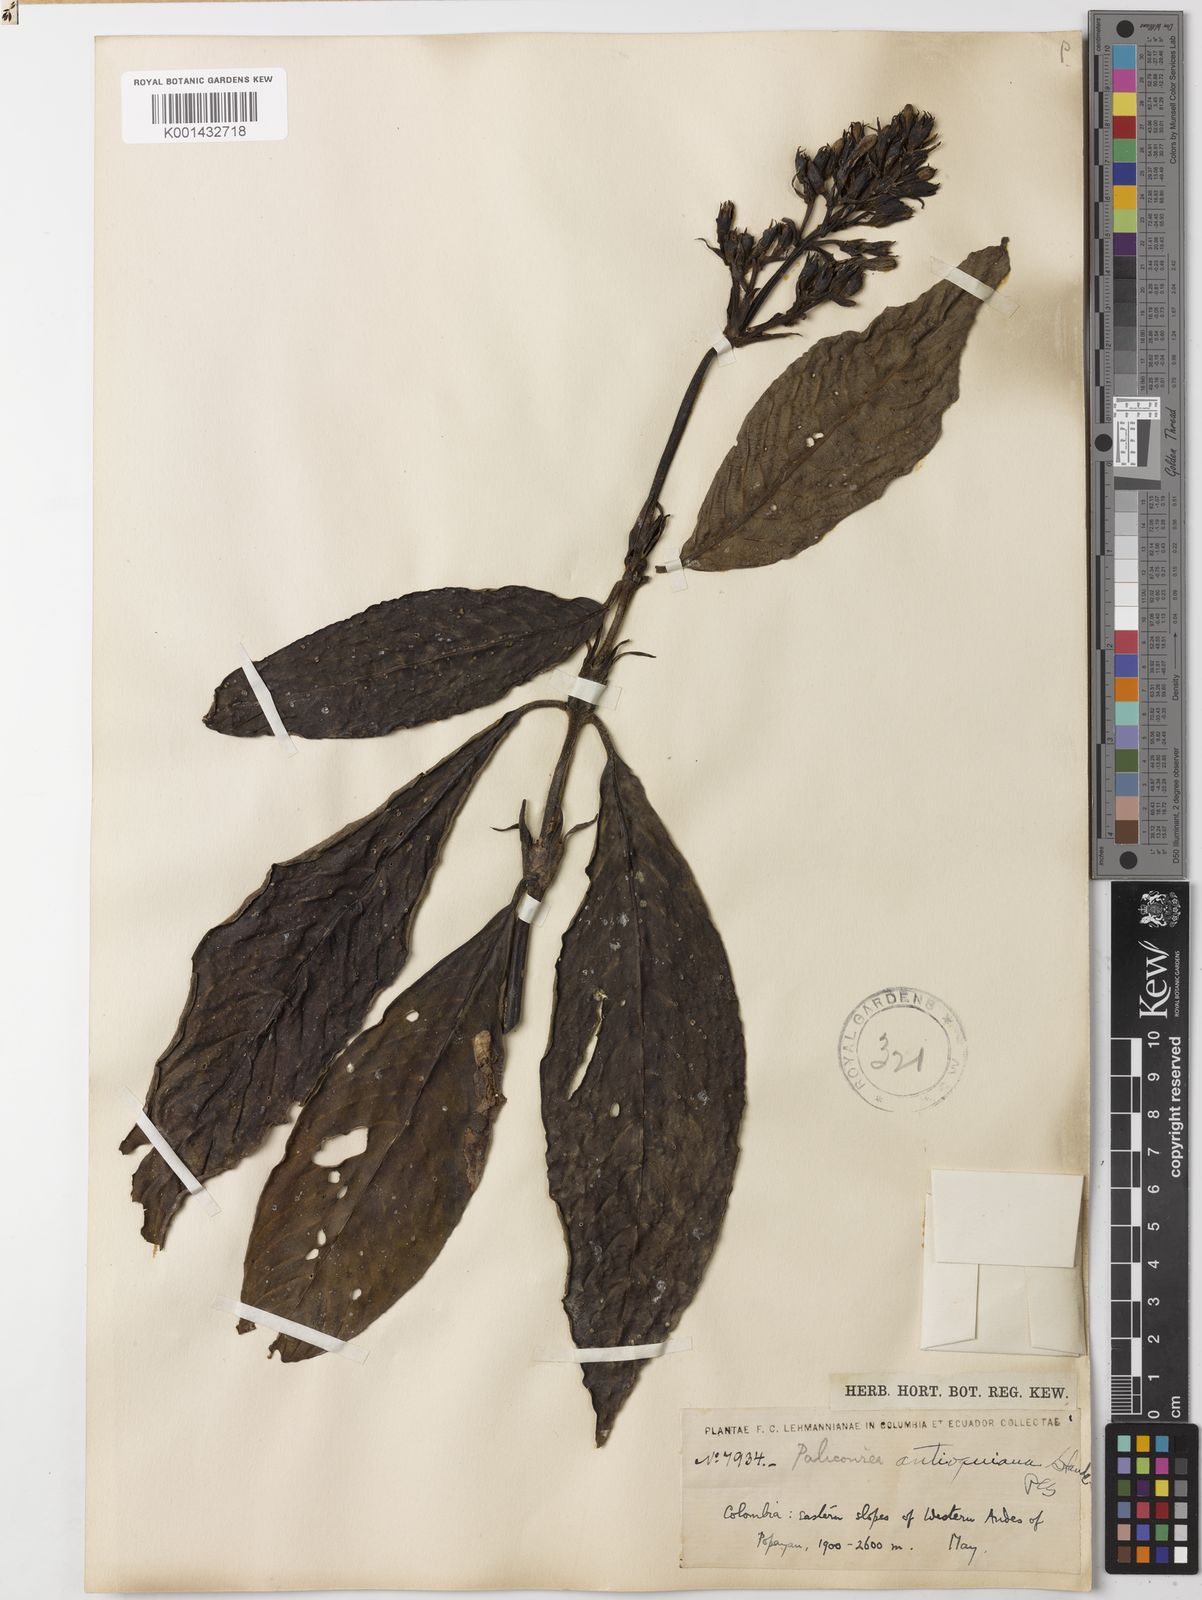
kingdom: Plantae
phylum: Tracheophyta
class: Magnoliopsida
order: Gentianales
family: Rubiaceae
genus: Palicourea
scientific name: Palicourea antioquiana
